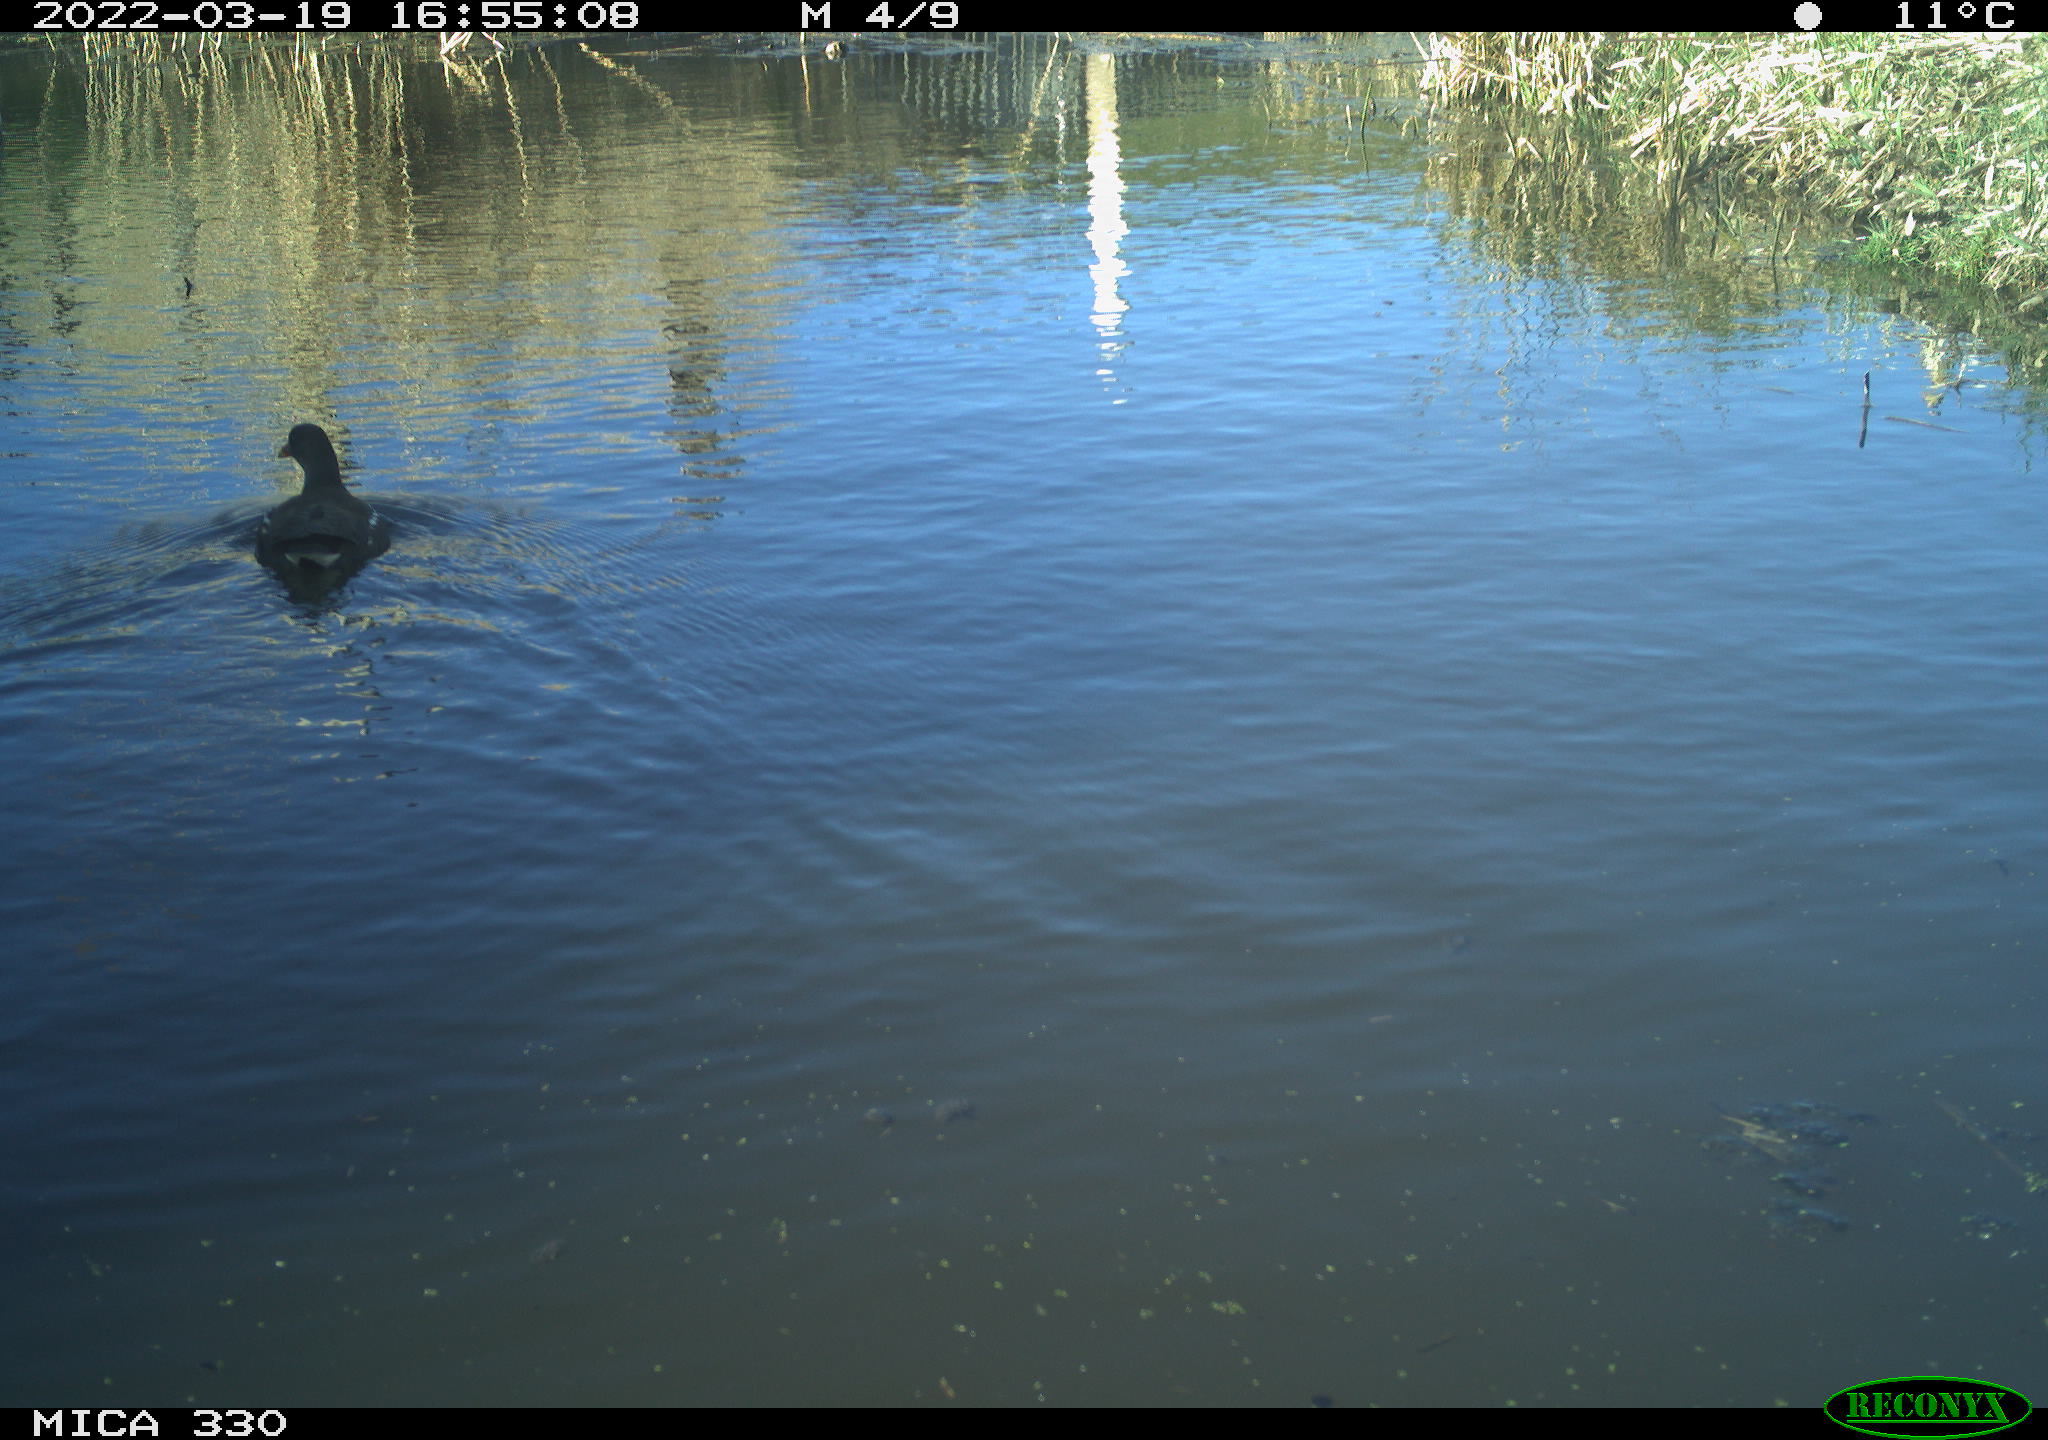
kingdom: Animalia
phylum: Chordata
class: Aves
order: Gruiformes
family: Rallidae
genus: Gallinula
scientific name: Gallinula chloropus
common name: Common moorhen
